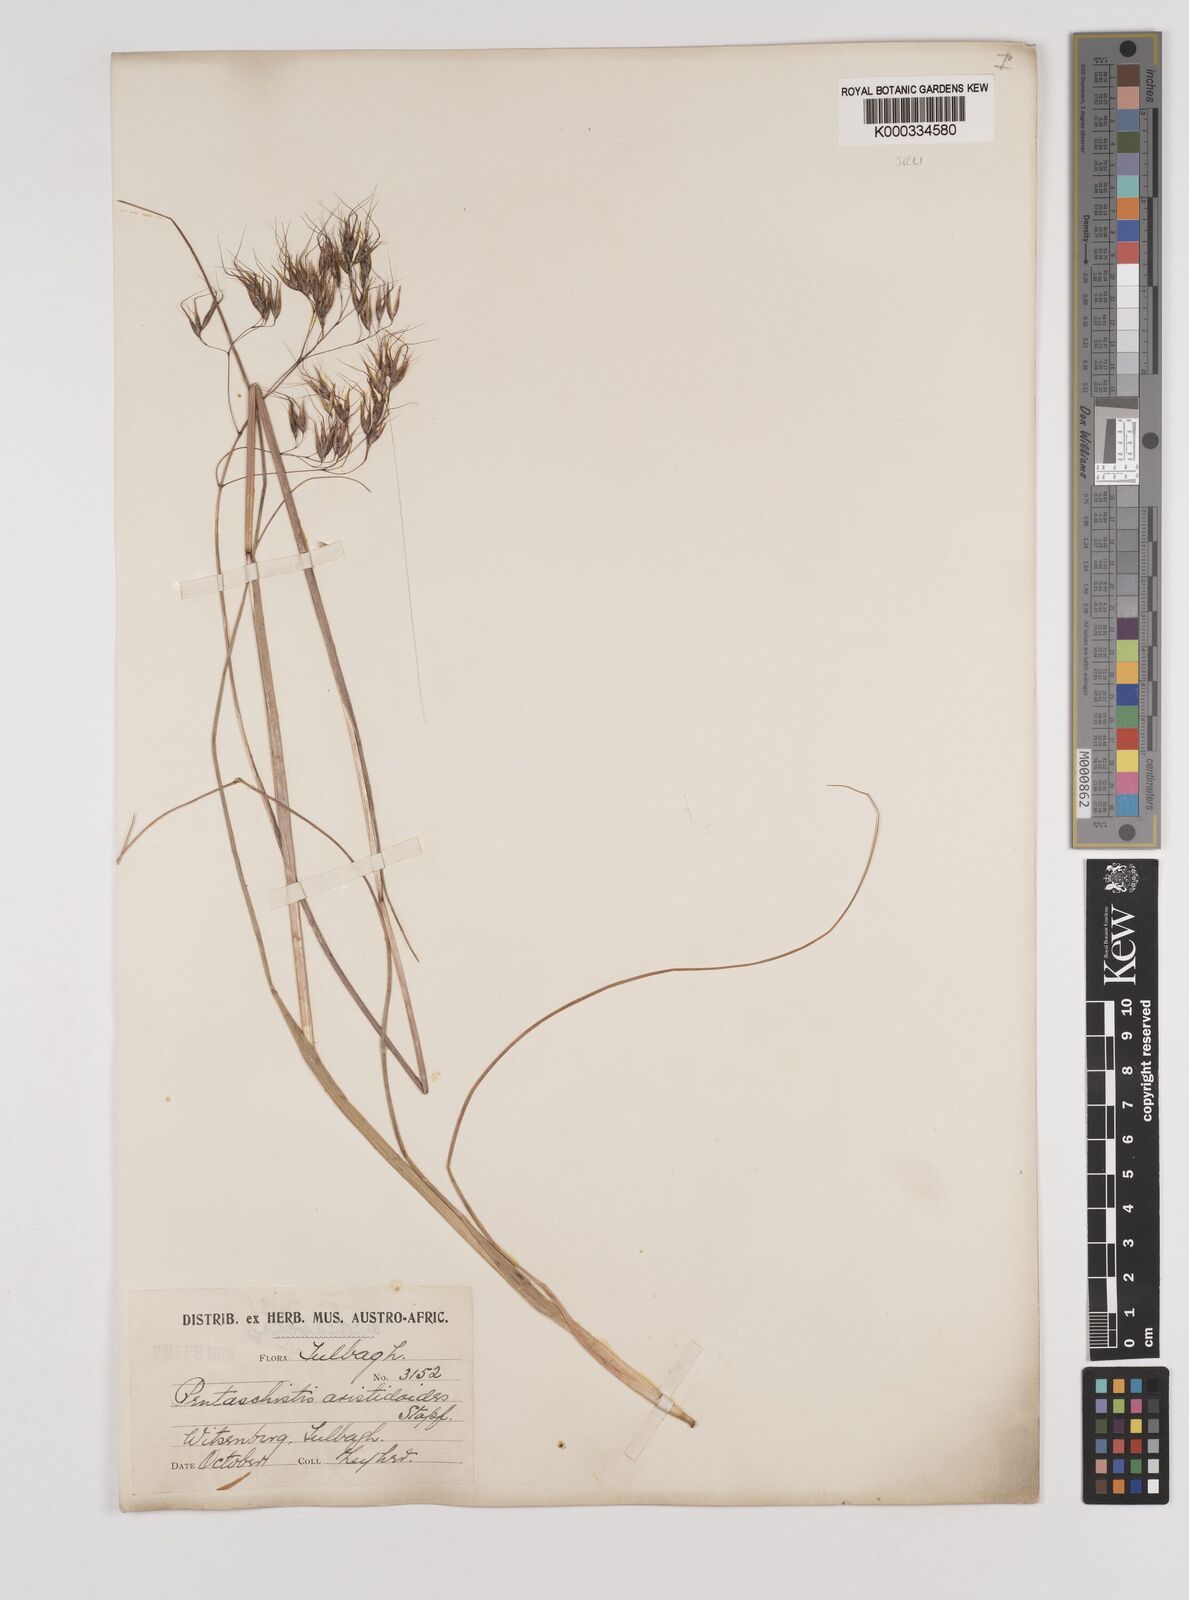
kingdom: Plantae
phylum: Tracheophyta
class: Liliopsida
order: Poales
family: Poaceae
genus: Pentameris
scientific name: Pentameris aristidoides
